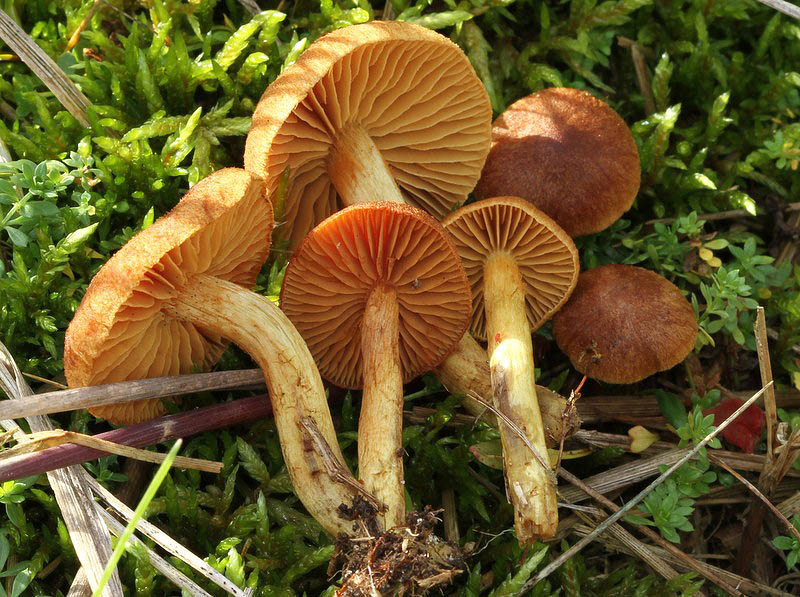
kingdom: Fungi
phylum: Basidiomycota
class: Agaricomycetes
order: Agaricales
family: Cortinariaceae
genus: Cortinarius
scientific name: Cortinarius pratensis
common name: hede-slørhat
